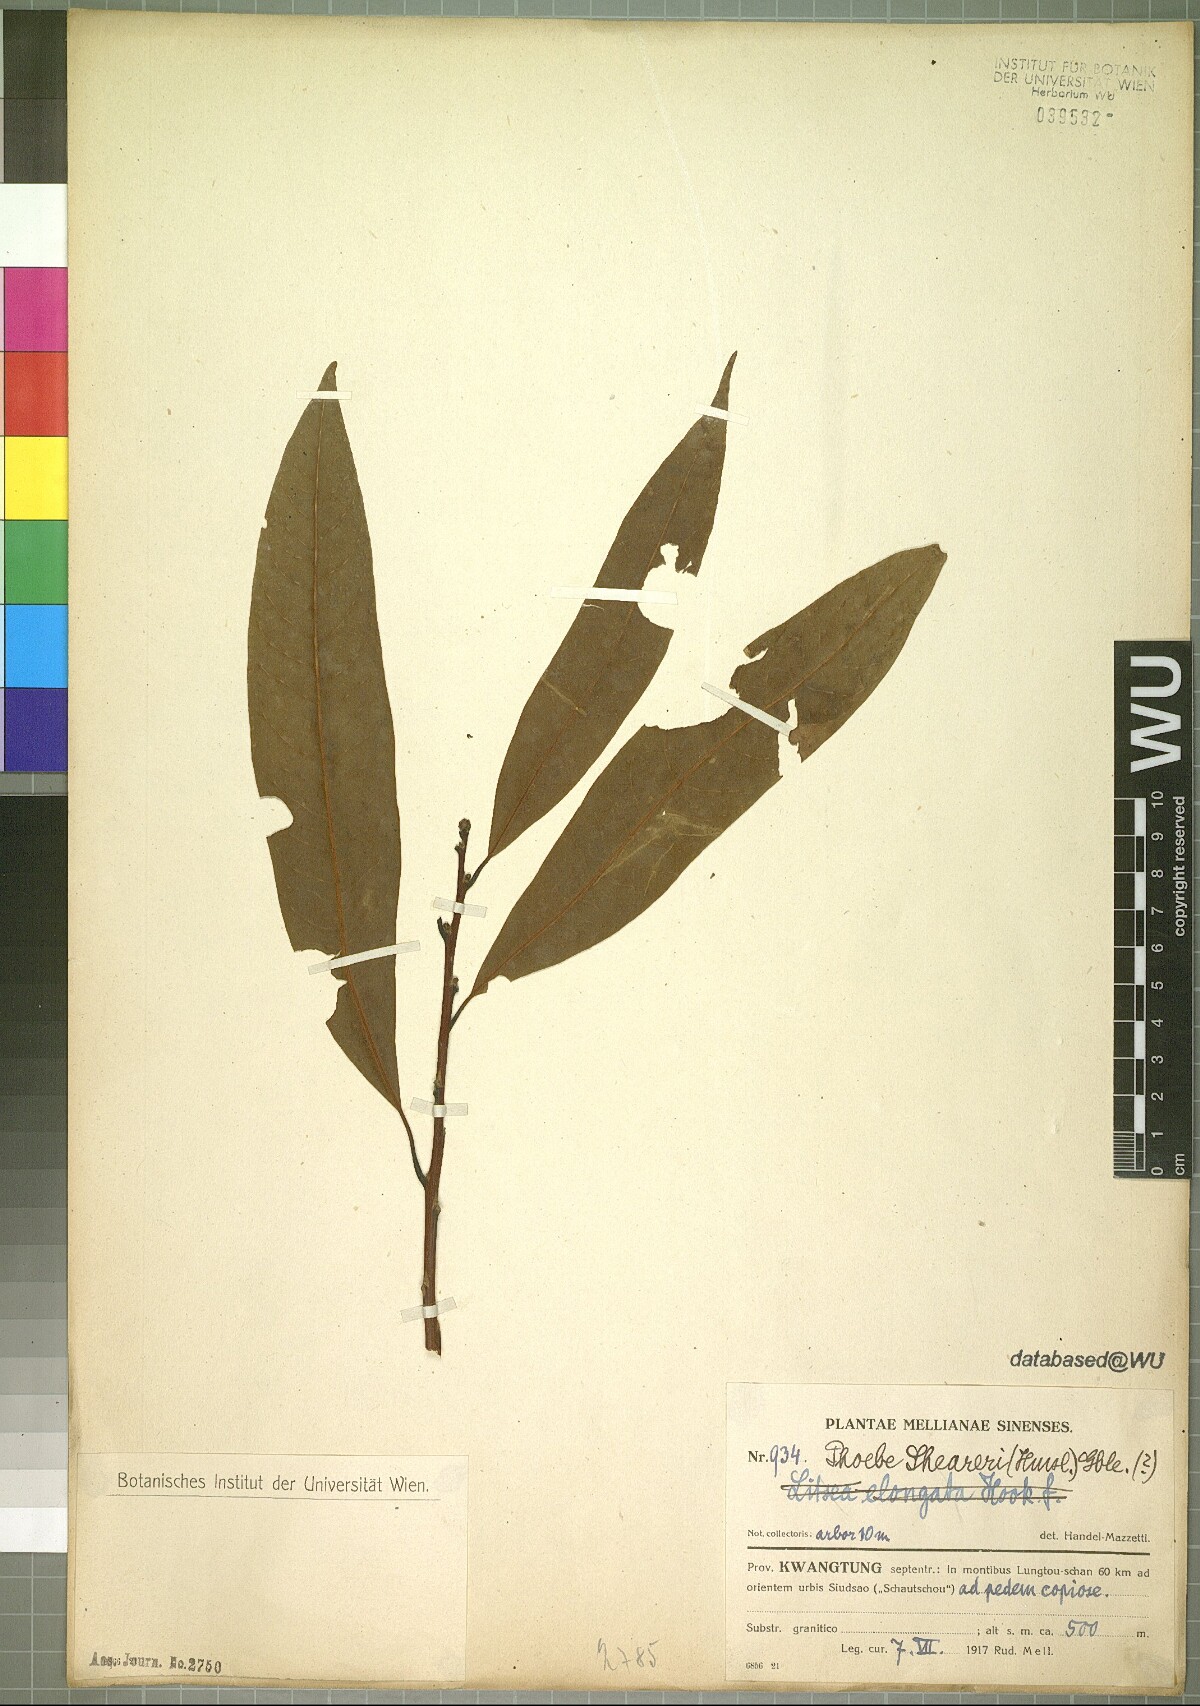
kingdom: Plantae
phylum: Tracheophyta
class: Magnoliopsida
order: Laurales
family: Lauraceae
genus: Phoebe
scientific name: Phoebe sheareri
